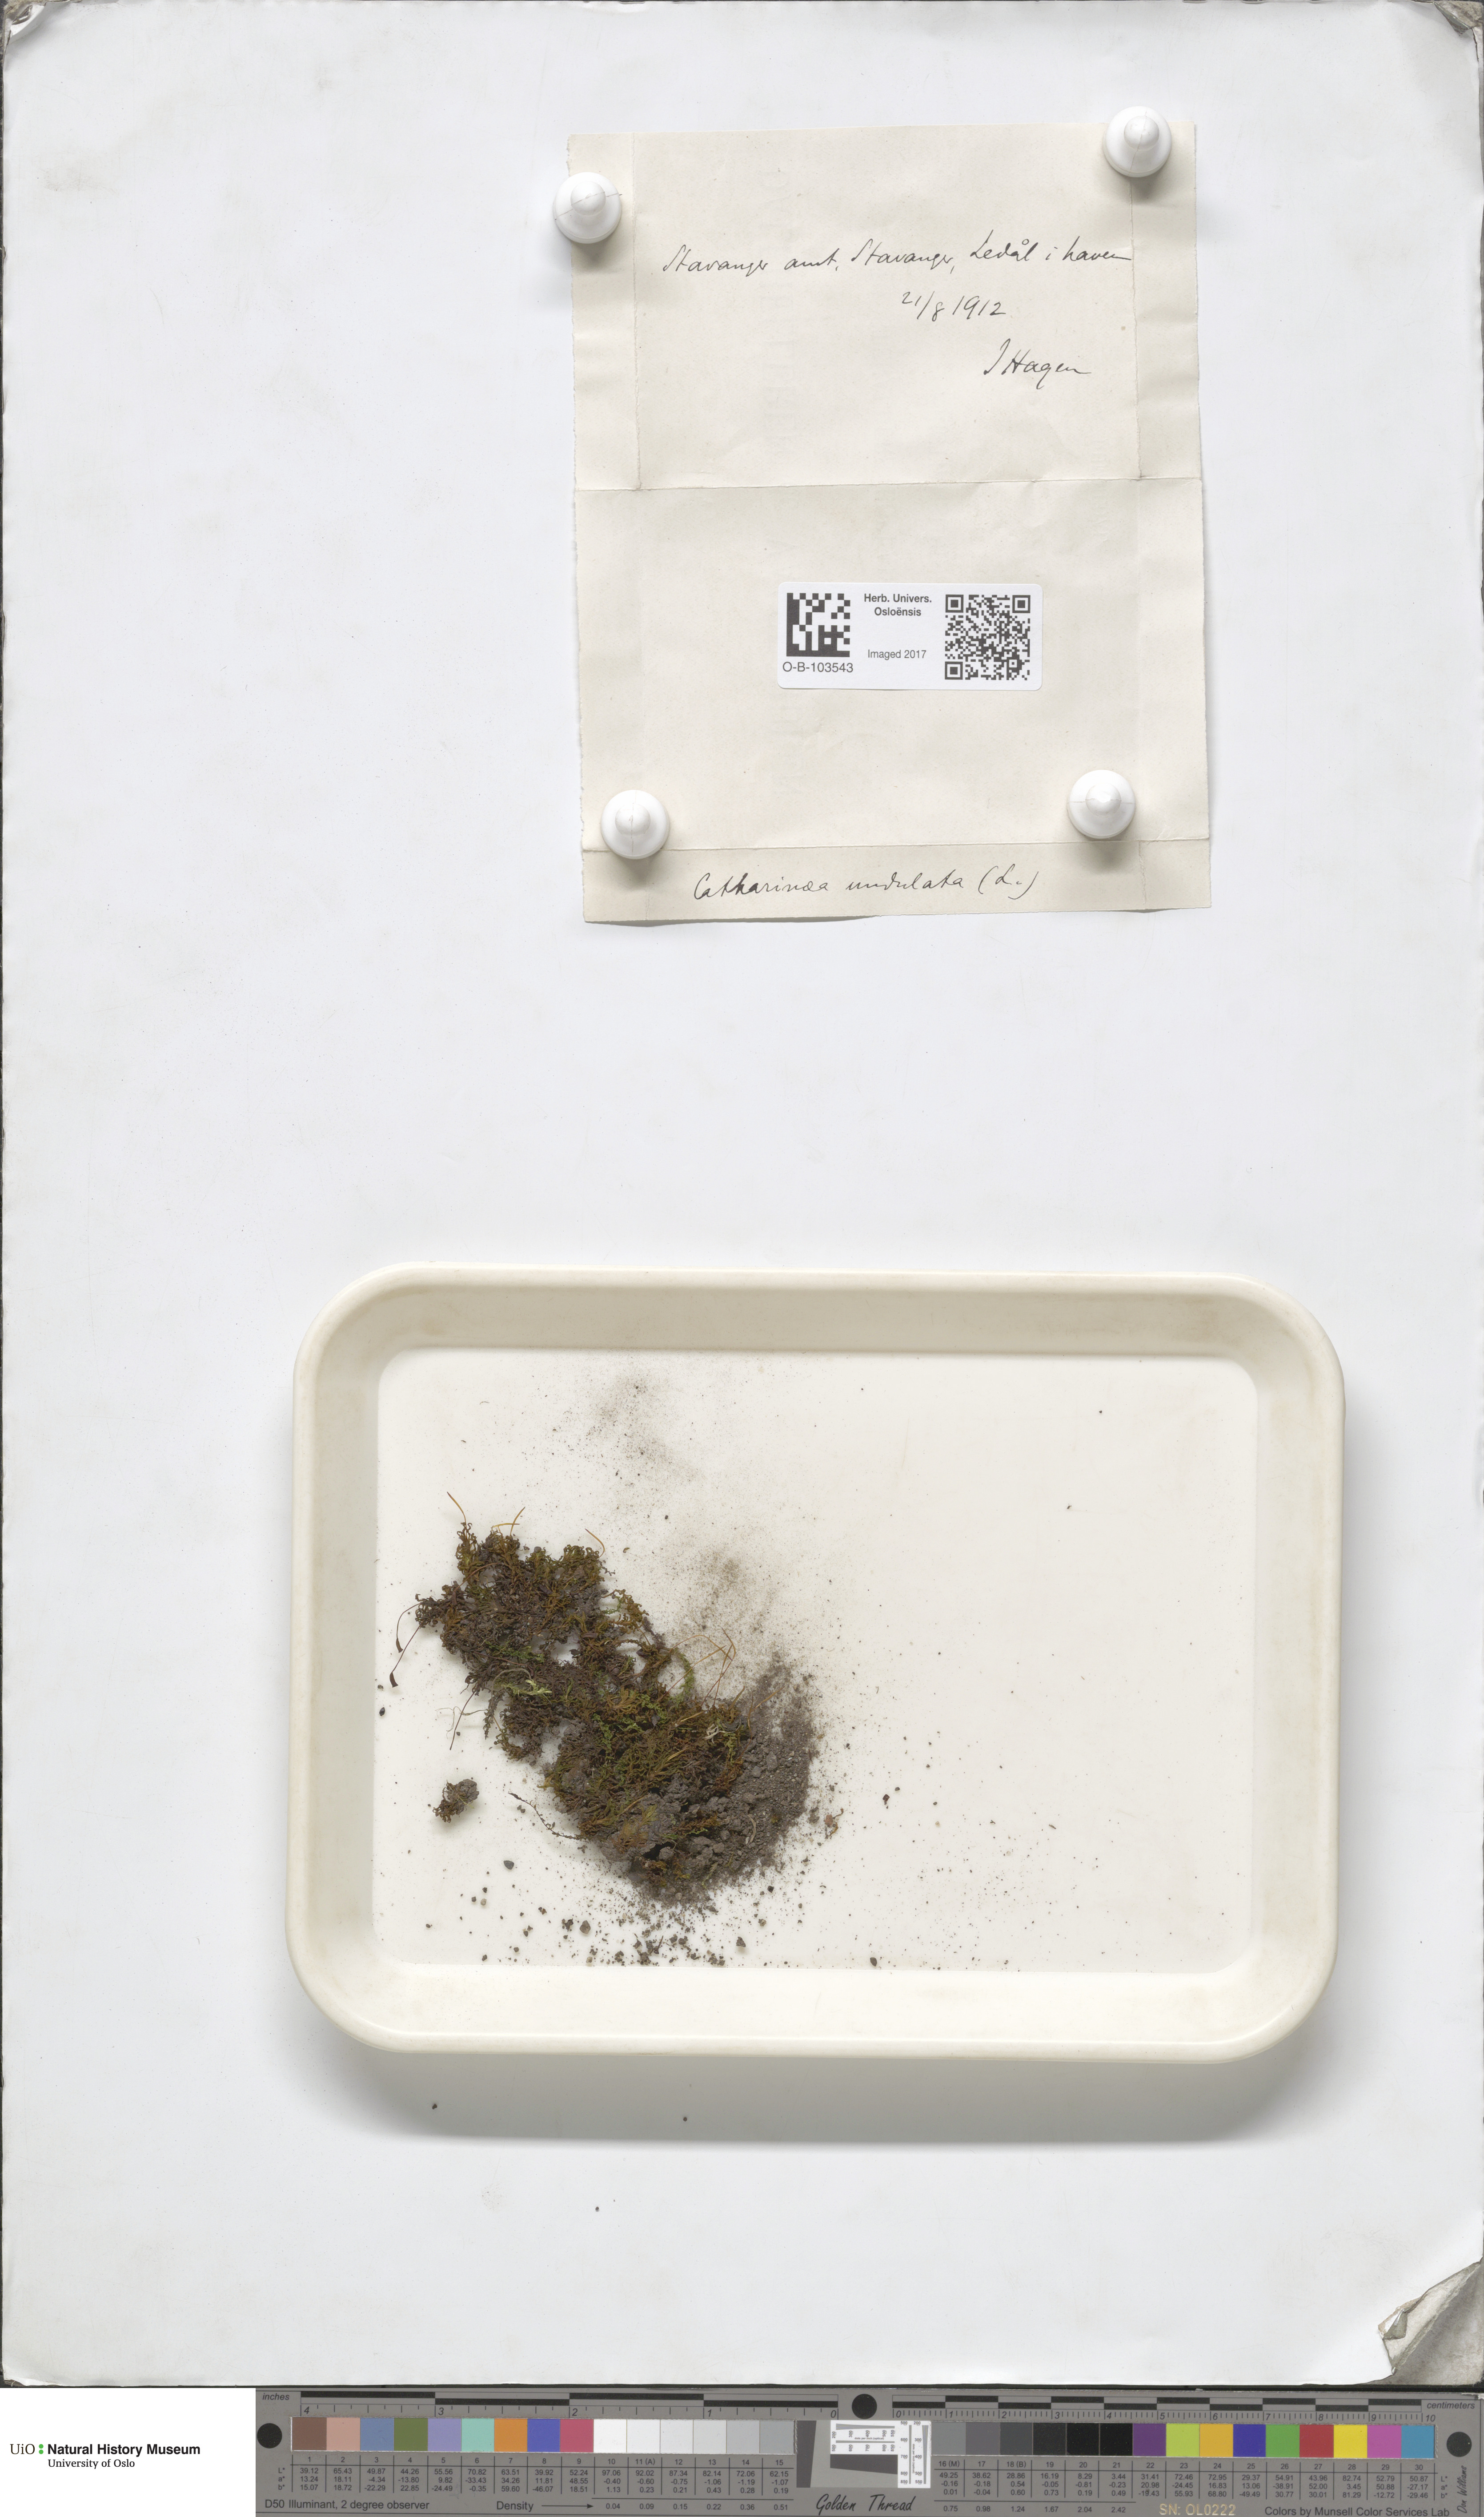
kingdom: Plantae
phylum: Bryophyta
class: Polytrichopsida
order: Polytrichales
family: Polytrichaceae
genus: Atrichum
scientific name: Atrichum undulatum
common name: Common smoothcap
